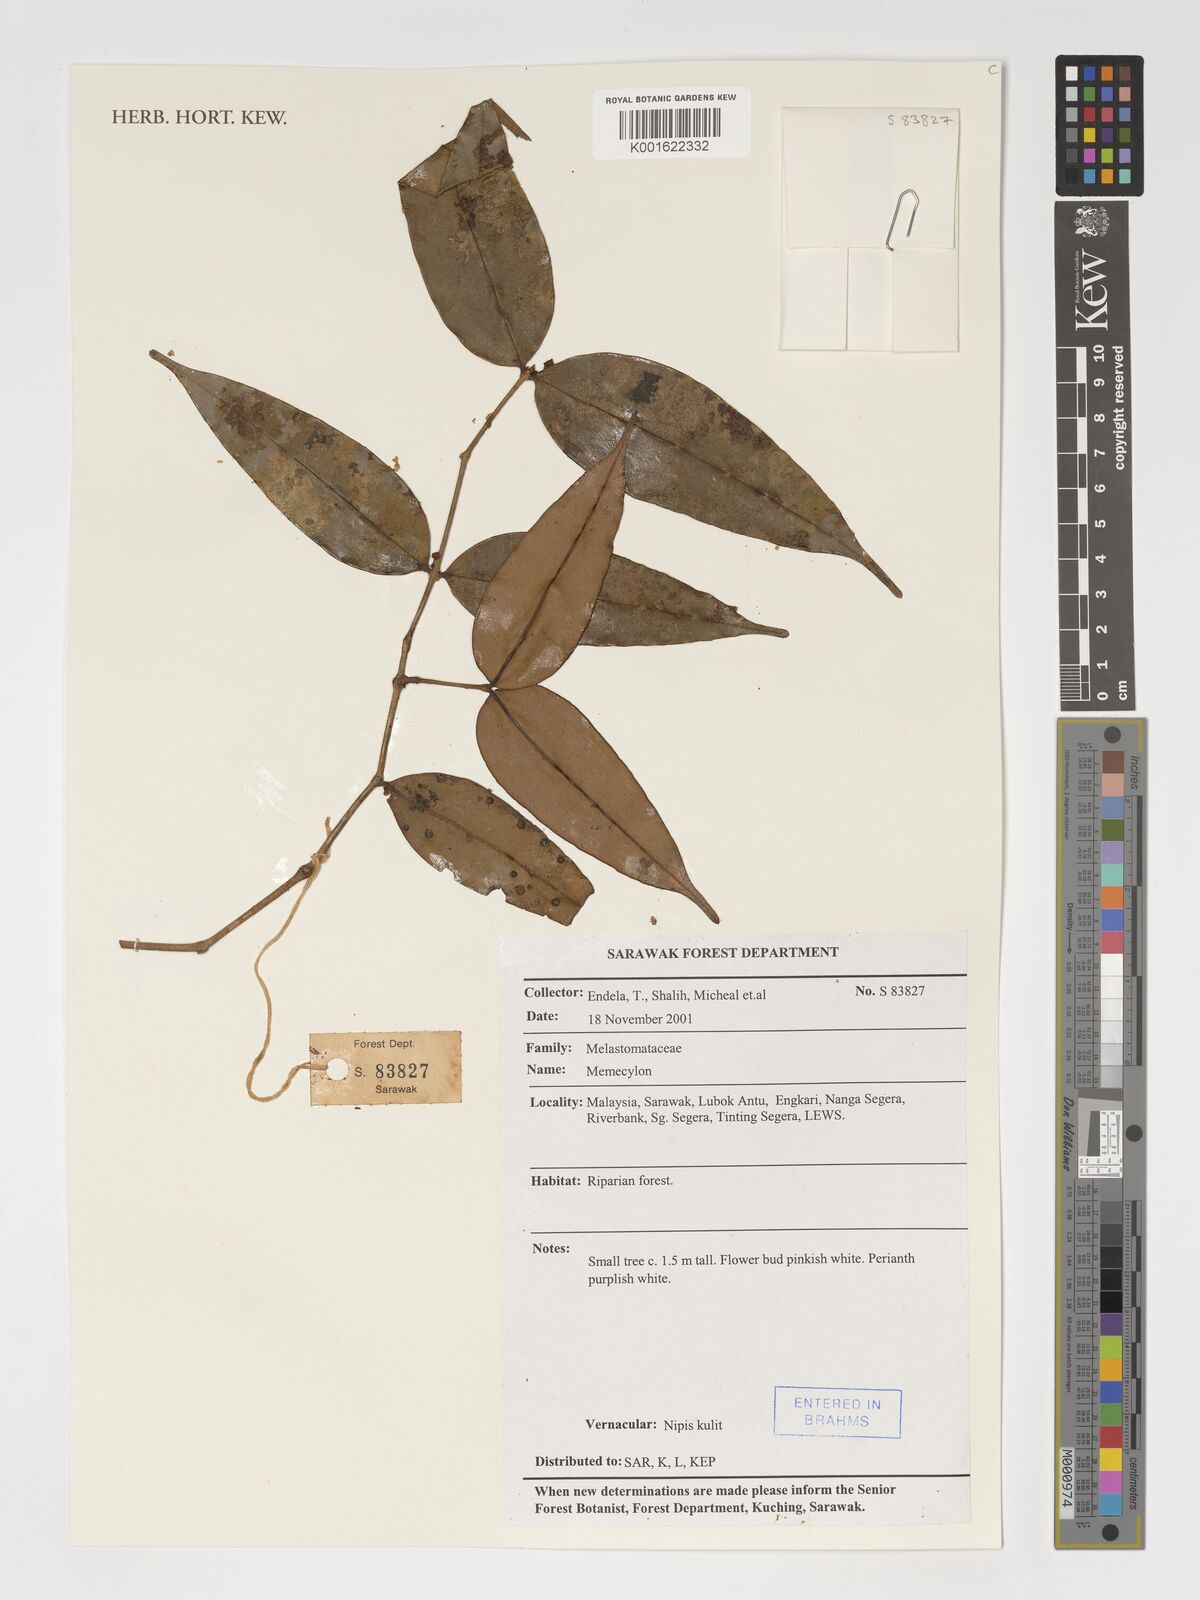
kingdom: Plantae
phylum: Tracheophyta
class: Magnoliopsida
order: Myrtales
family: Melastomataceae
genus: Memecylon
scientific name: Memecylon
